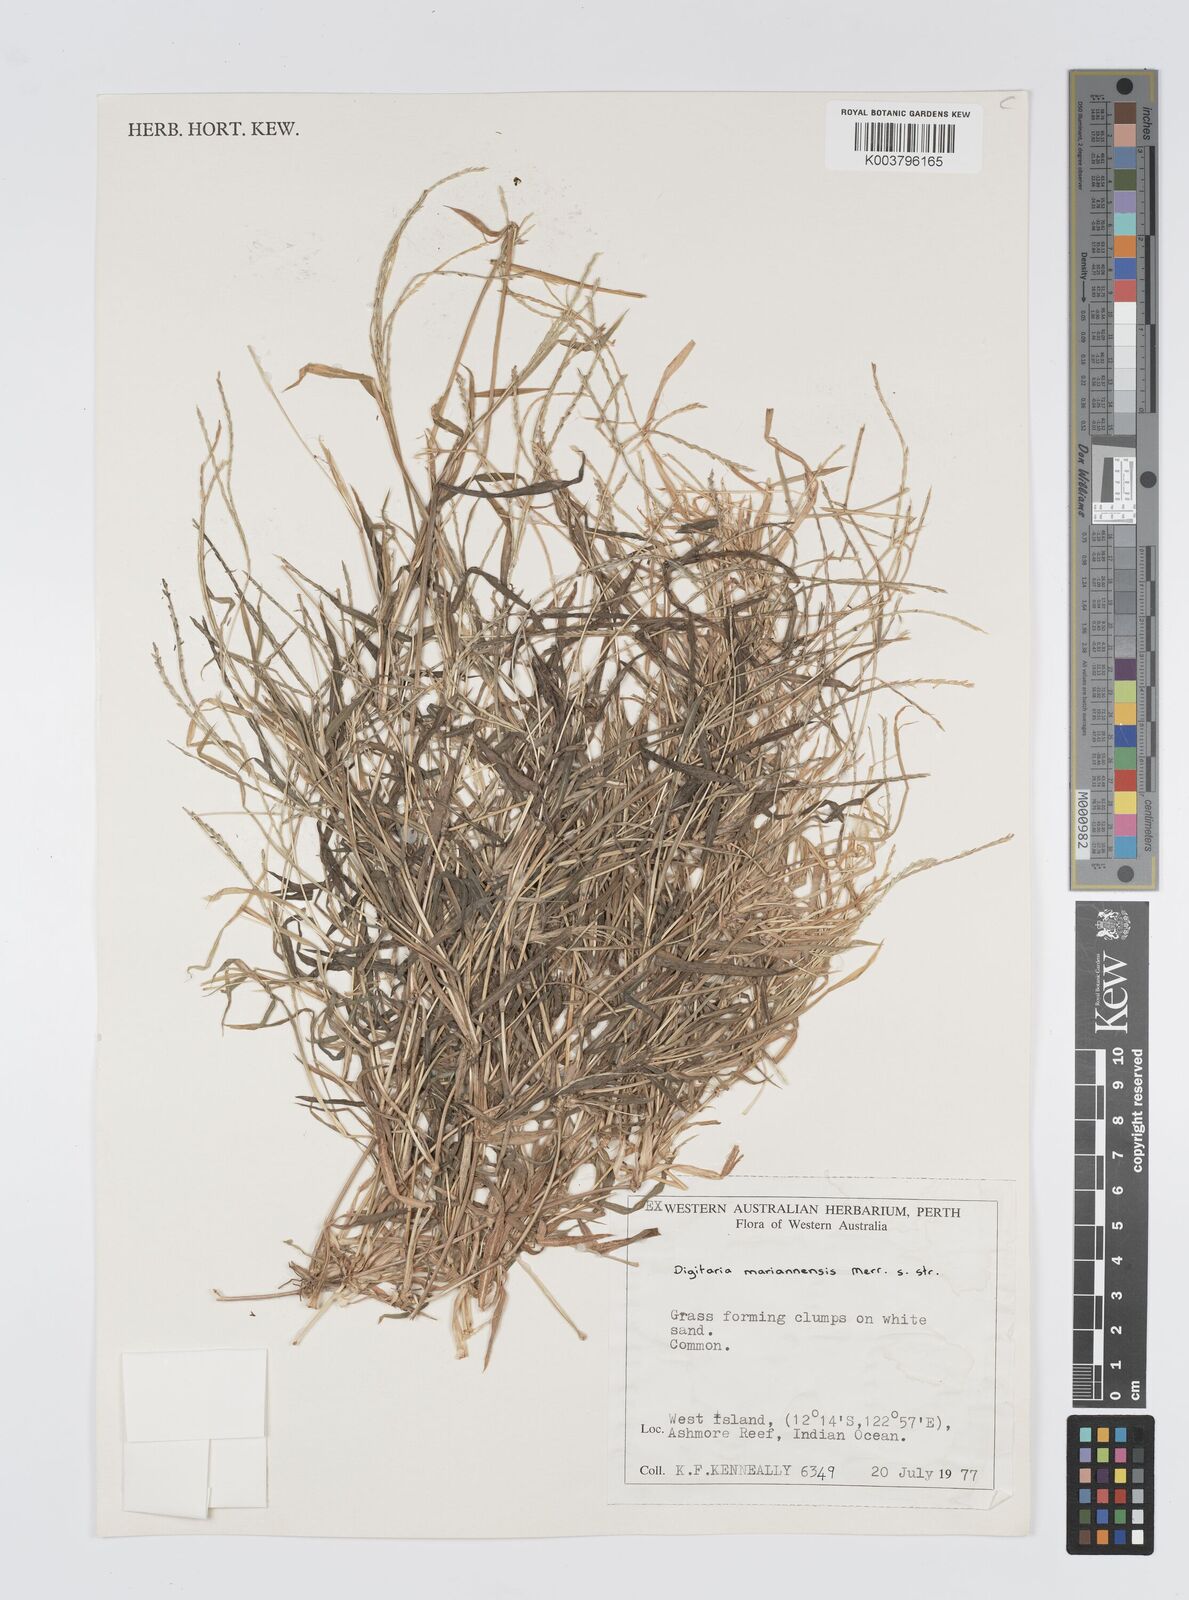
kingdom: Plantae
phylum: Tracheophyta
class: Liliopsida
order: Poales
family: Poaceae
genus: Digitaria
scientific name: Digitaria mariannensis
